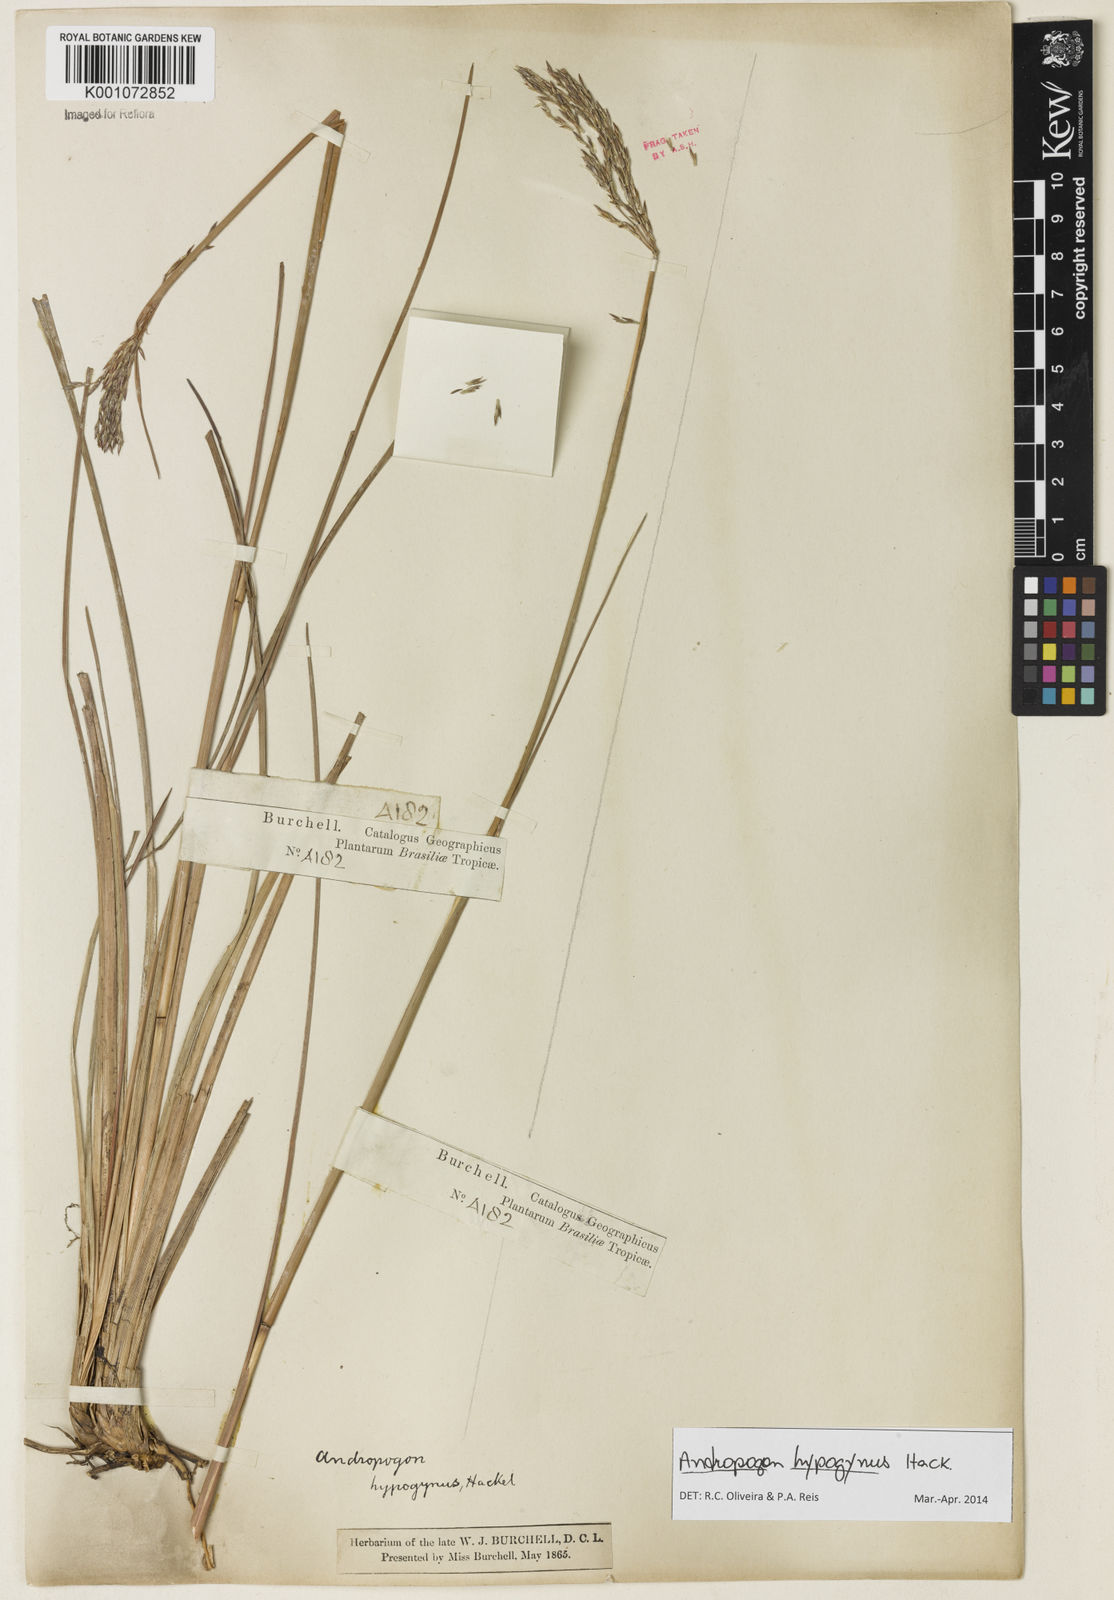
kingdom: Plantae
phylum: Tracheophyta
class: Liliopsida
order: Poales
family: Poaceae
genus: Andropogon
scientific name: Andropogon hypogynus
